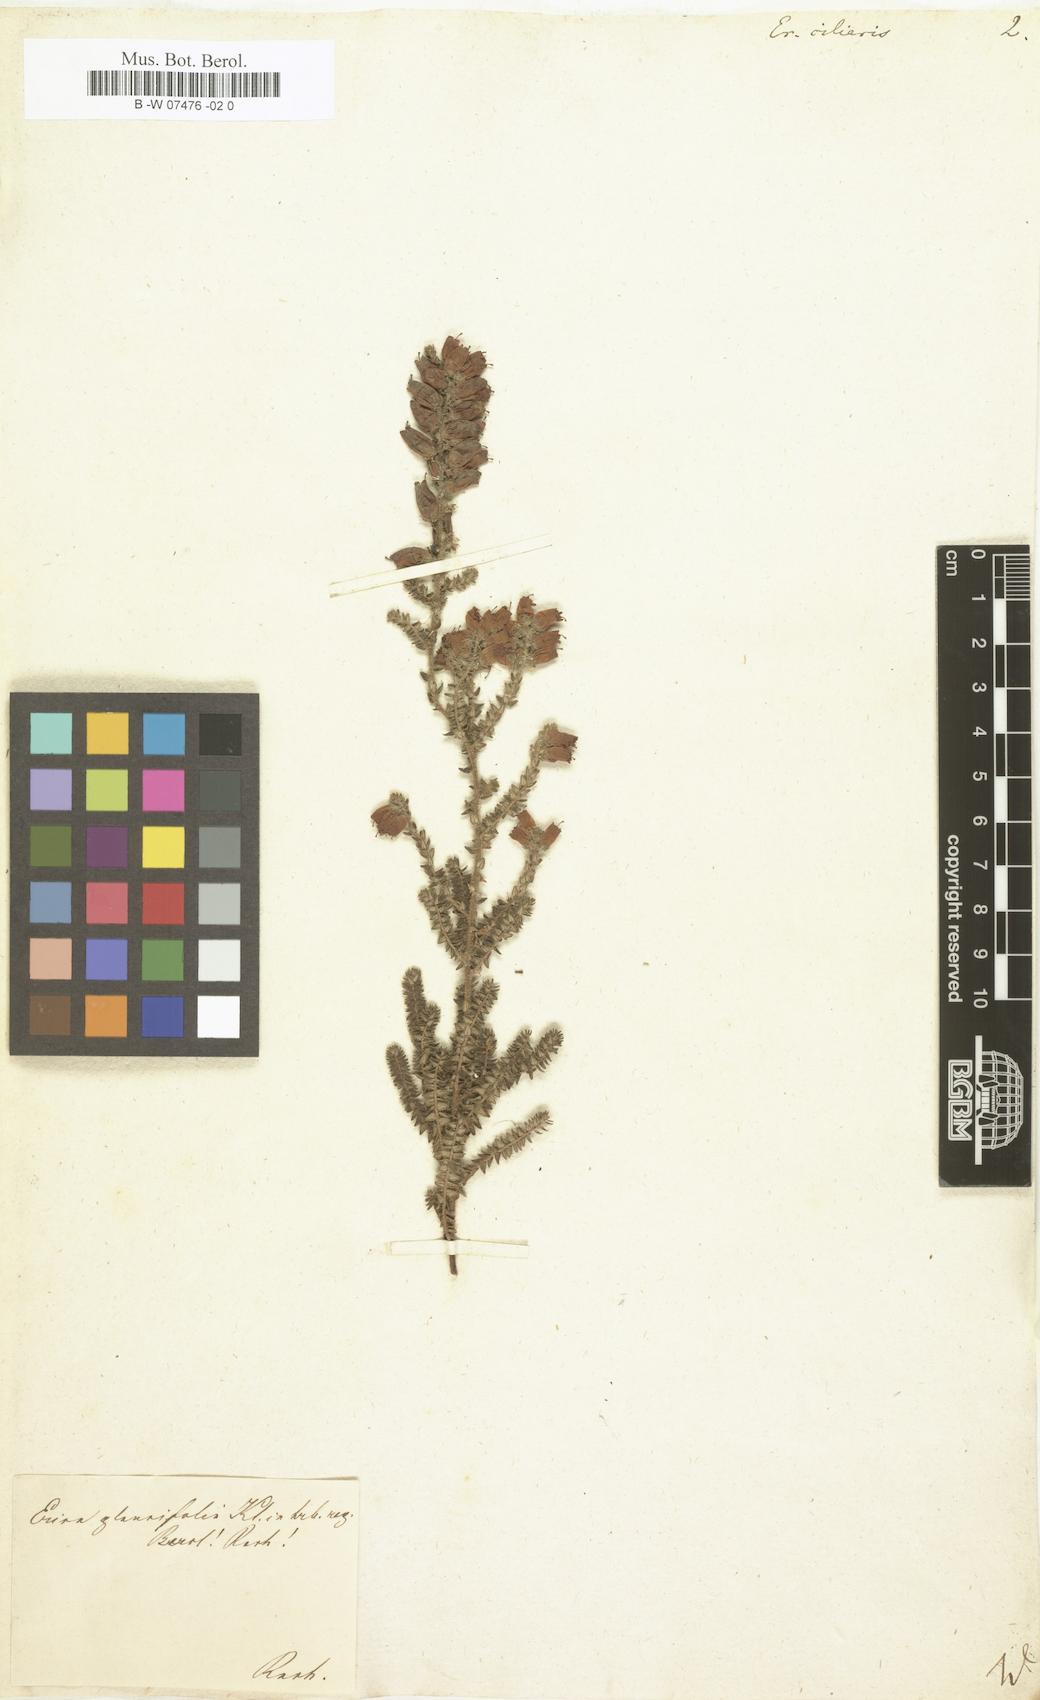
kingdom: Plantae
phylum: Tracheophyta
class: Magnoliopsida
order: Ericales
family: Ericaceae
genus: Erica
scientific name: Erica ciliaris
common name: Dorset heath
